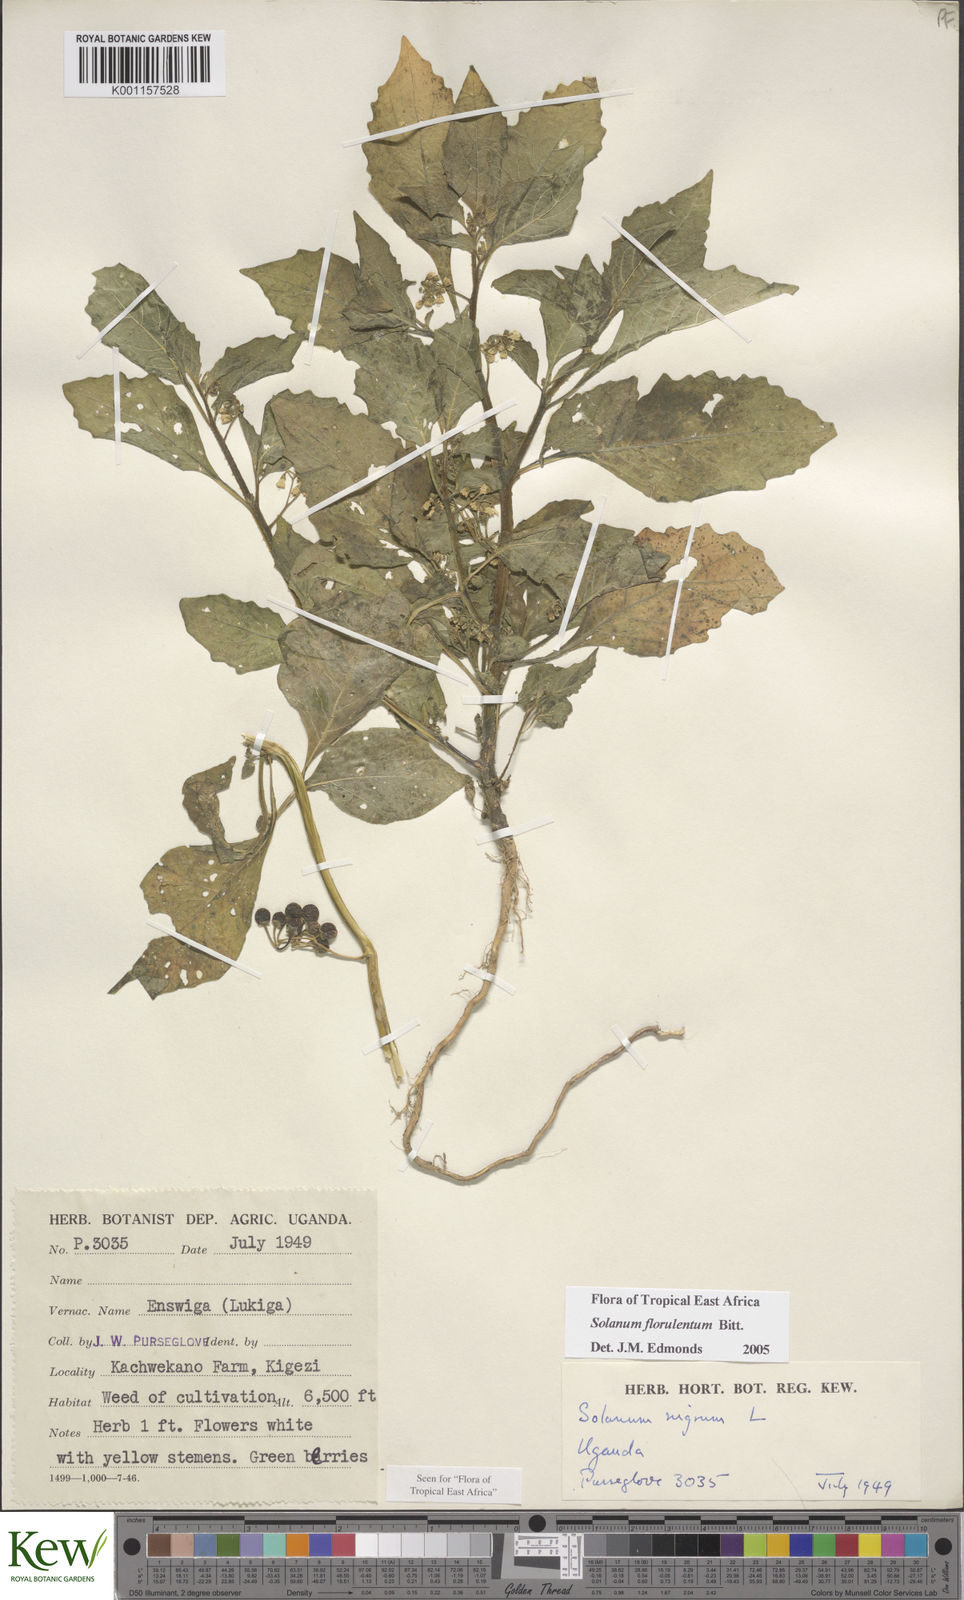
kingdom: Plantae
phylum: Tracheophyta
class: Magnoliopsida
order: Solanales
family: Solanaceae
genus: Solanum
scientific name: Solanum tarderemotum
